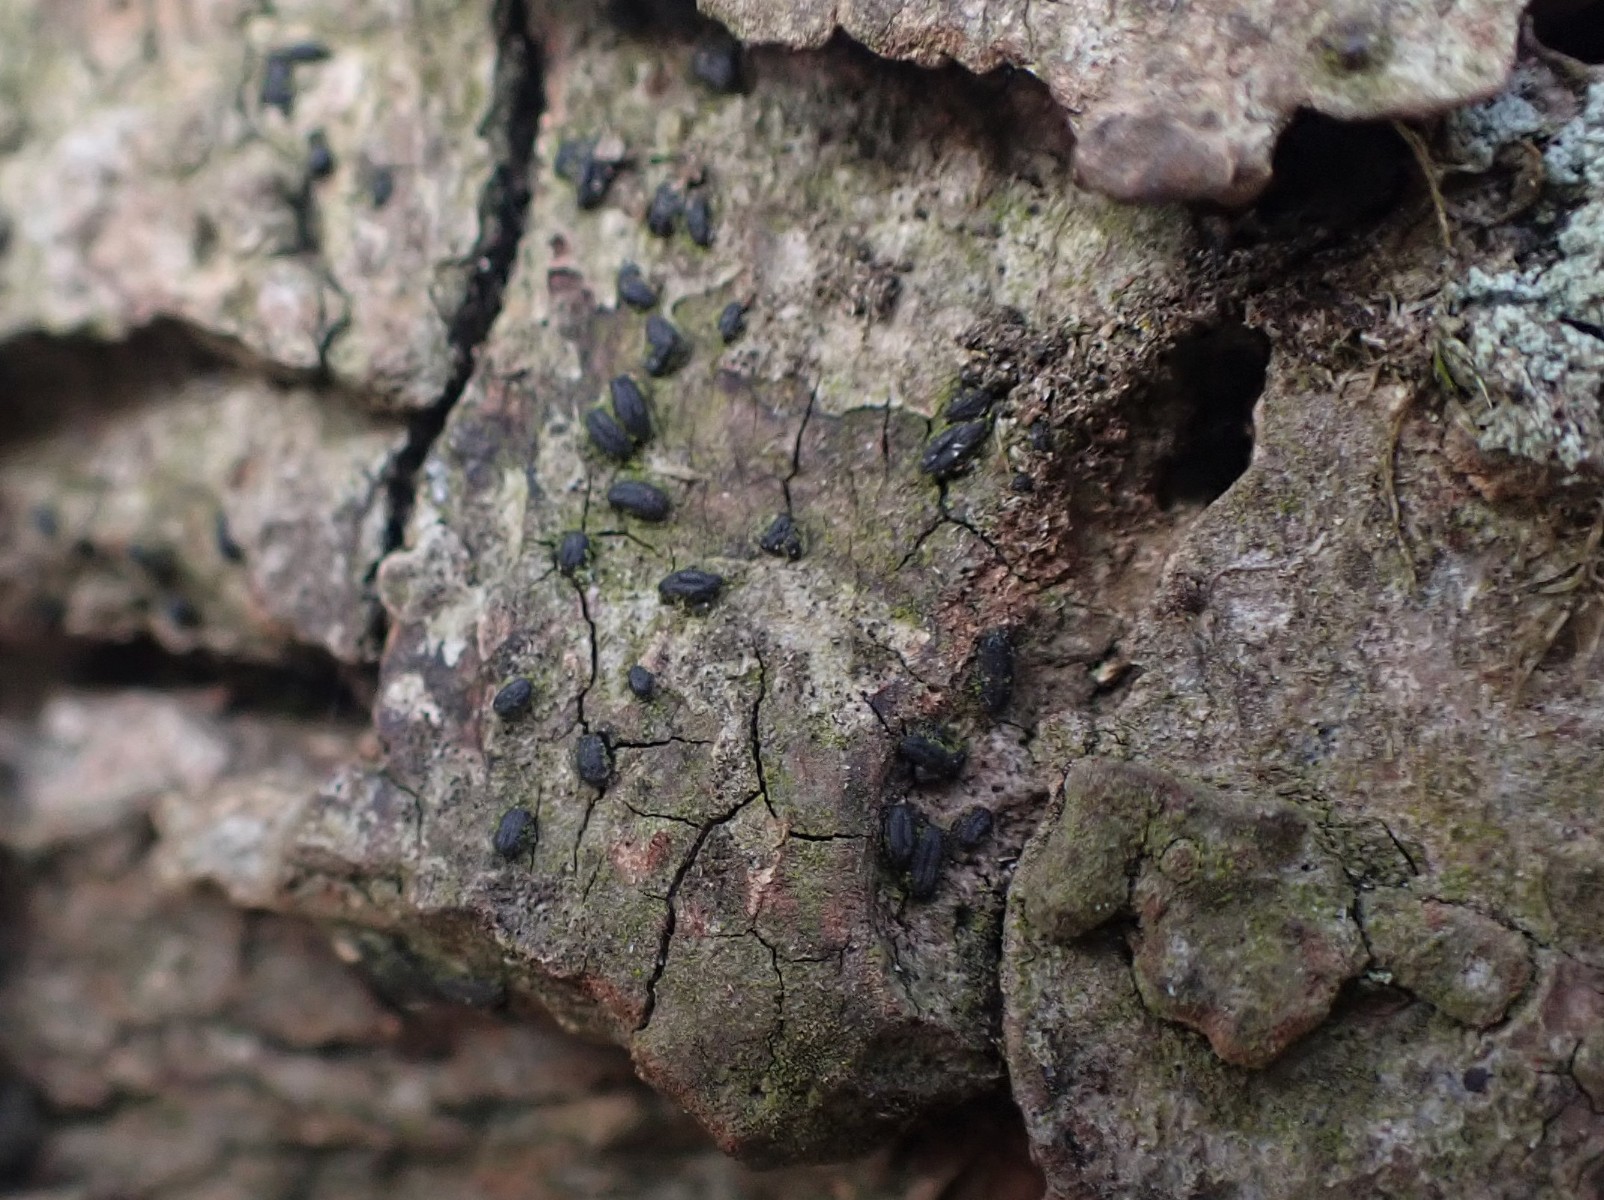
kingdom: Fungi
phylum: Ascomycota
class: Dothideomycetes
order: Hysteriales
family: Hysteriaceae
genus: Hysterium
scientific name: Hysterium pulicare
